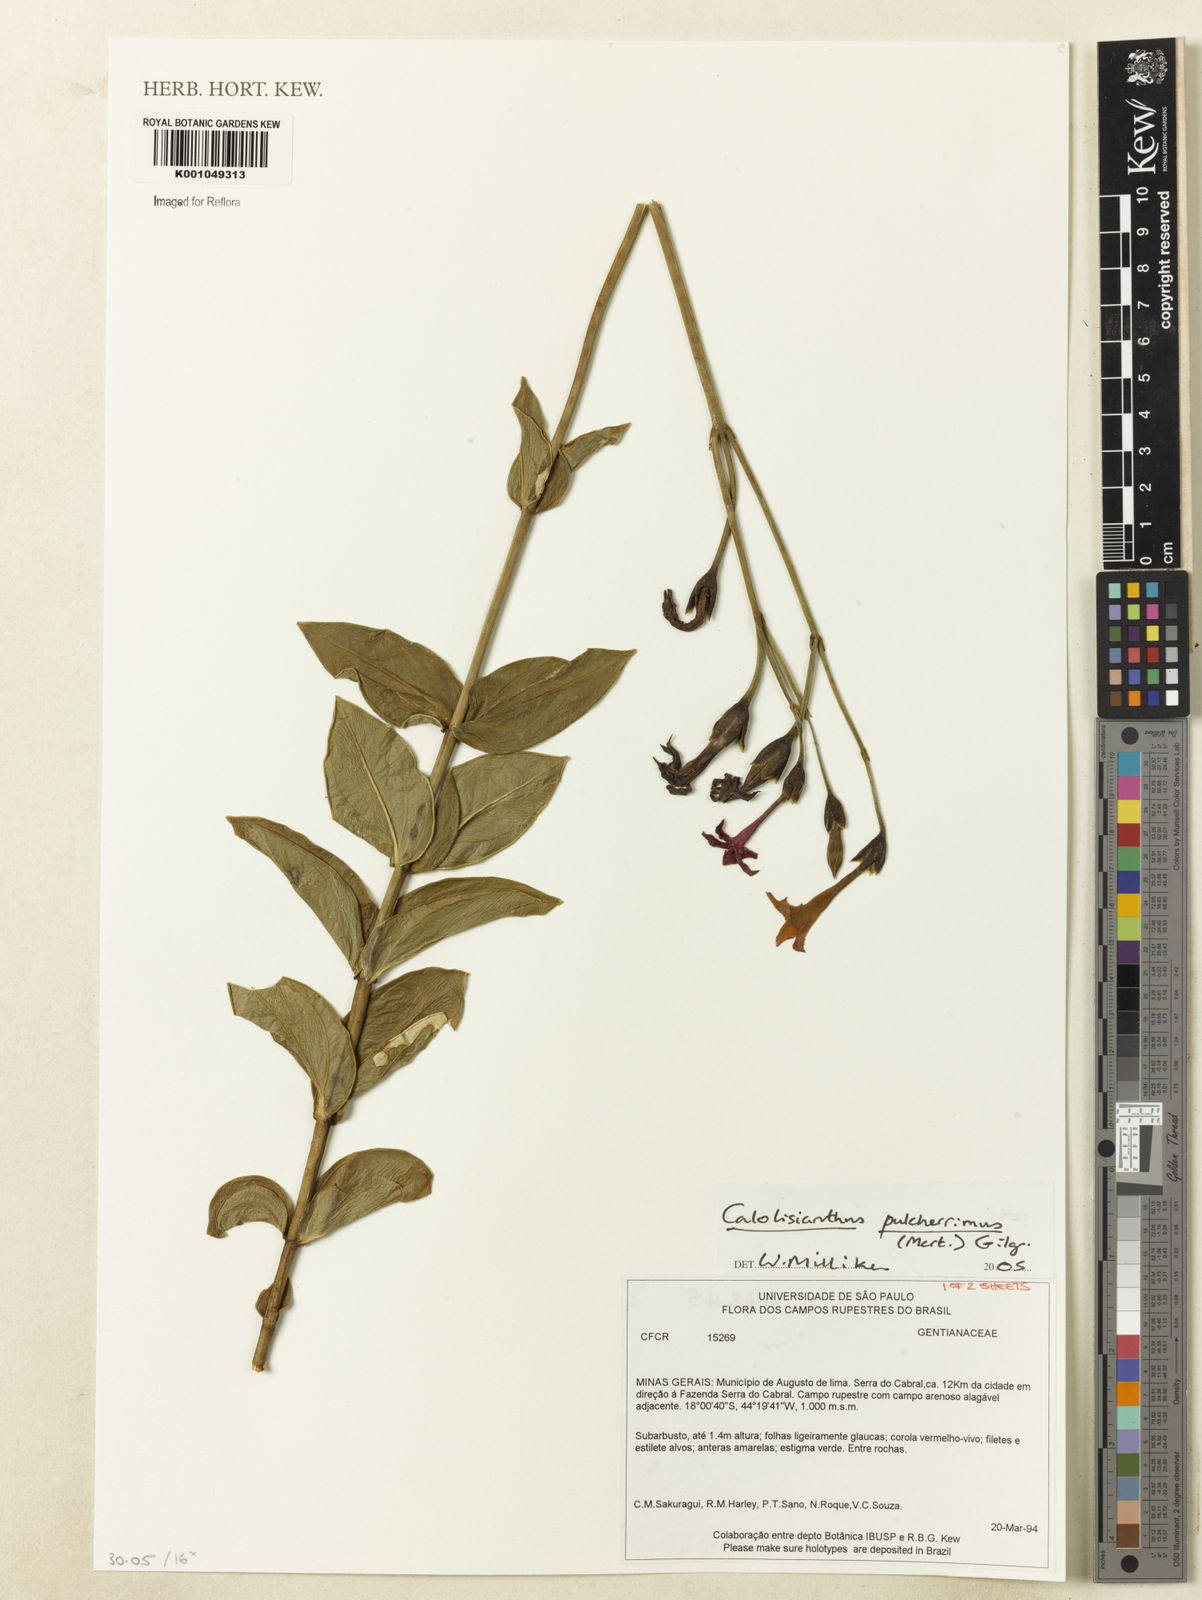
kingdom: Plantae
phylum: Tracheophyta
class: Magnoliopsida
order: Gentianales
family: Gentianaceae
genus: Calolisianthus
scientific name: Calolisianthus pulcherrimus
